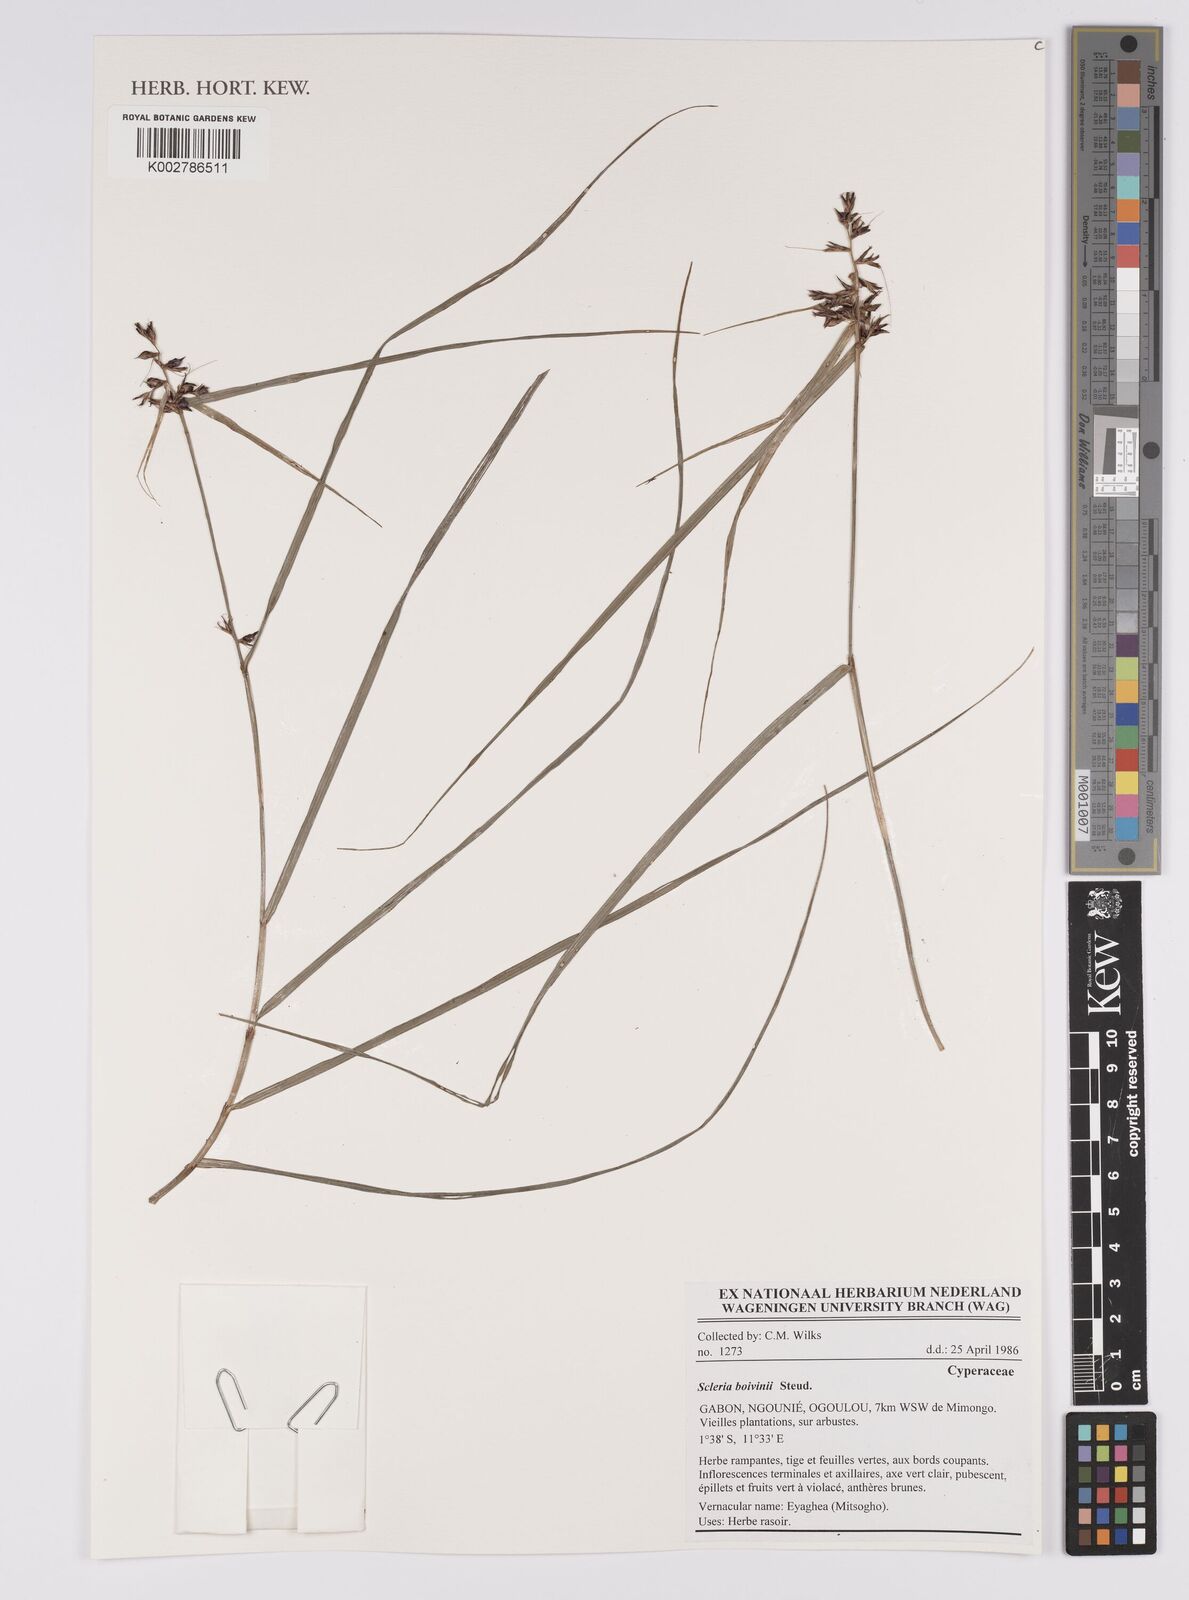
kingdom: Plantae
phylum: Tracheophyta
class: Liliopsida
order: Poales
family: Cyperaceae
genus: Scleria
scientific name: Scleria boivinii
